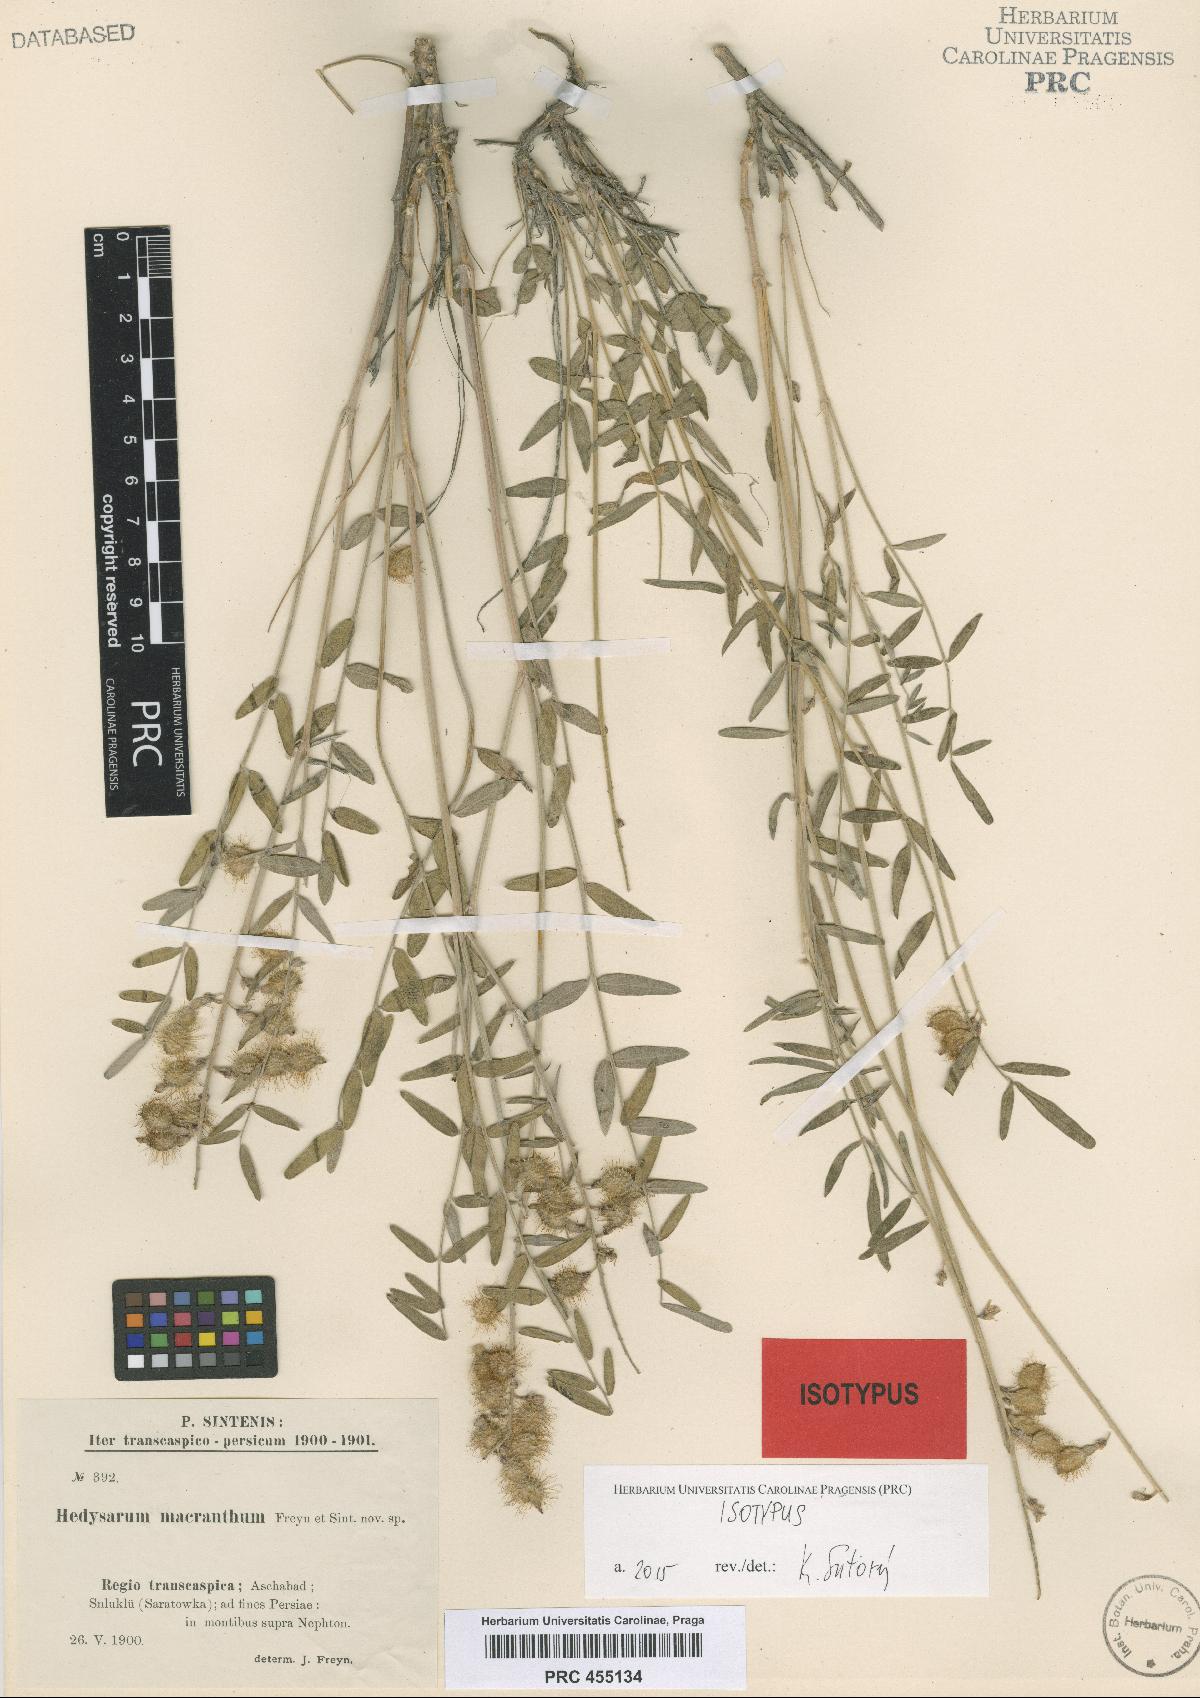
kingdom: Plantae
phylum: Tracheophyta
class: Magnoliopsida
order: Fabales
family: Fabaceae
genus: Hedysarum
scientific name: Hedysarum macranthum
